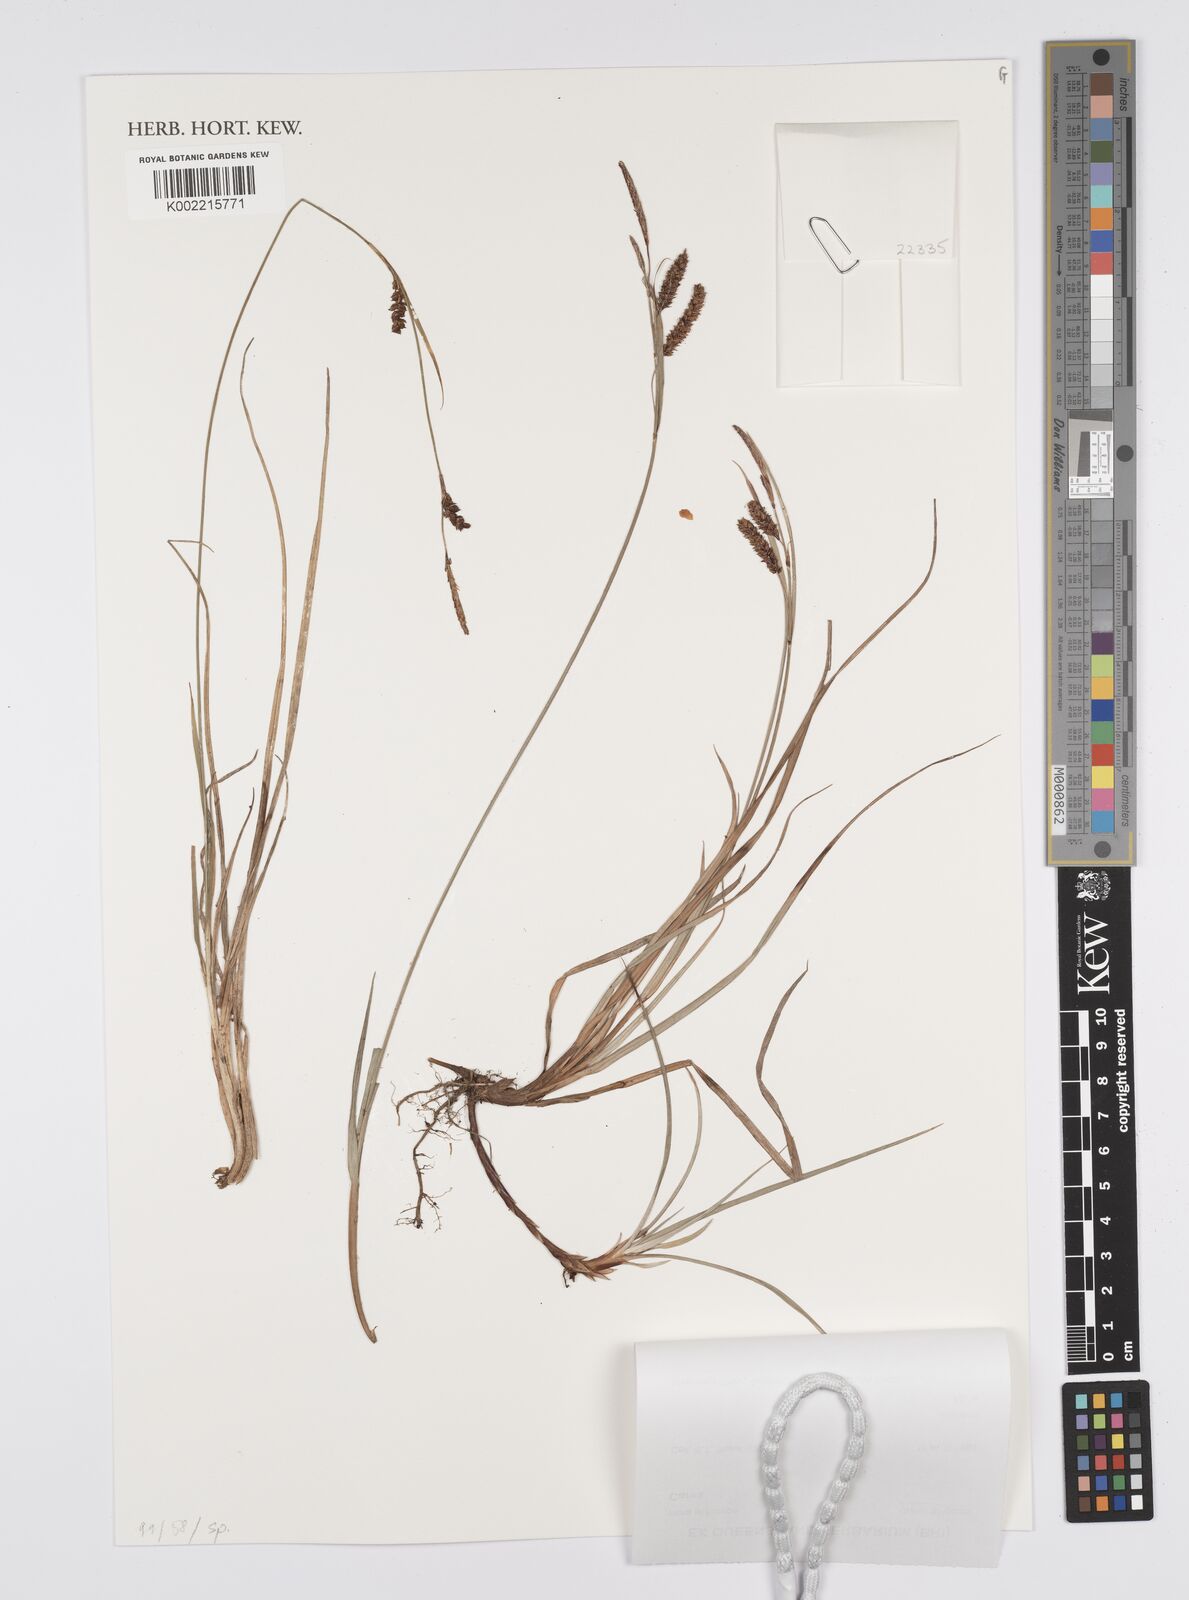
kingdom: Plantae
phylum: Tracheophyta
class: Liliopsida
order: Poales
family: Cyperaceae
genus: Carex
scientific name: Carex
